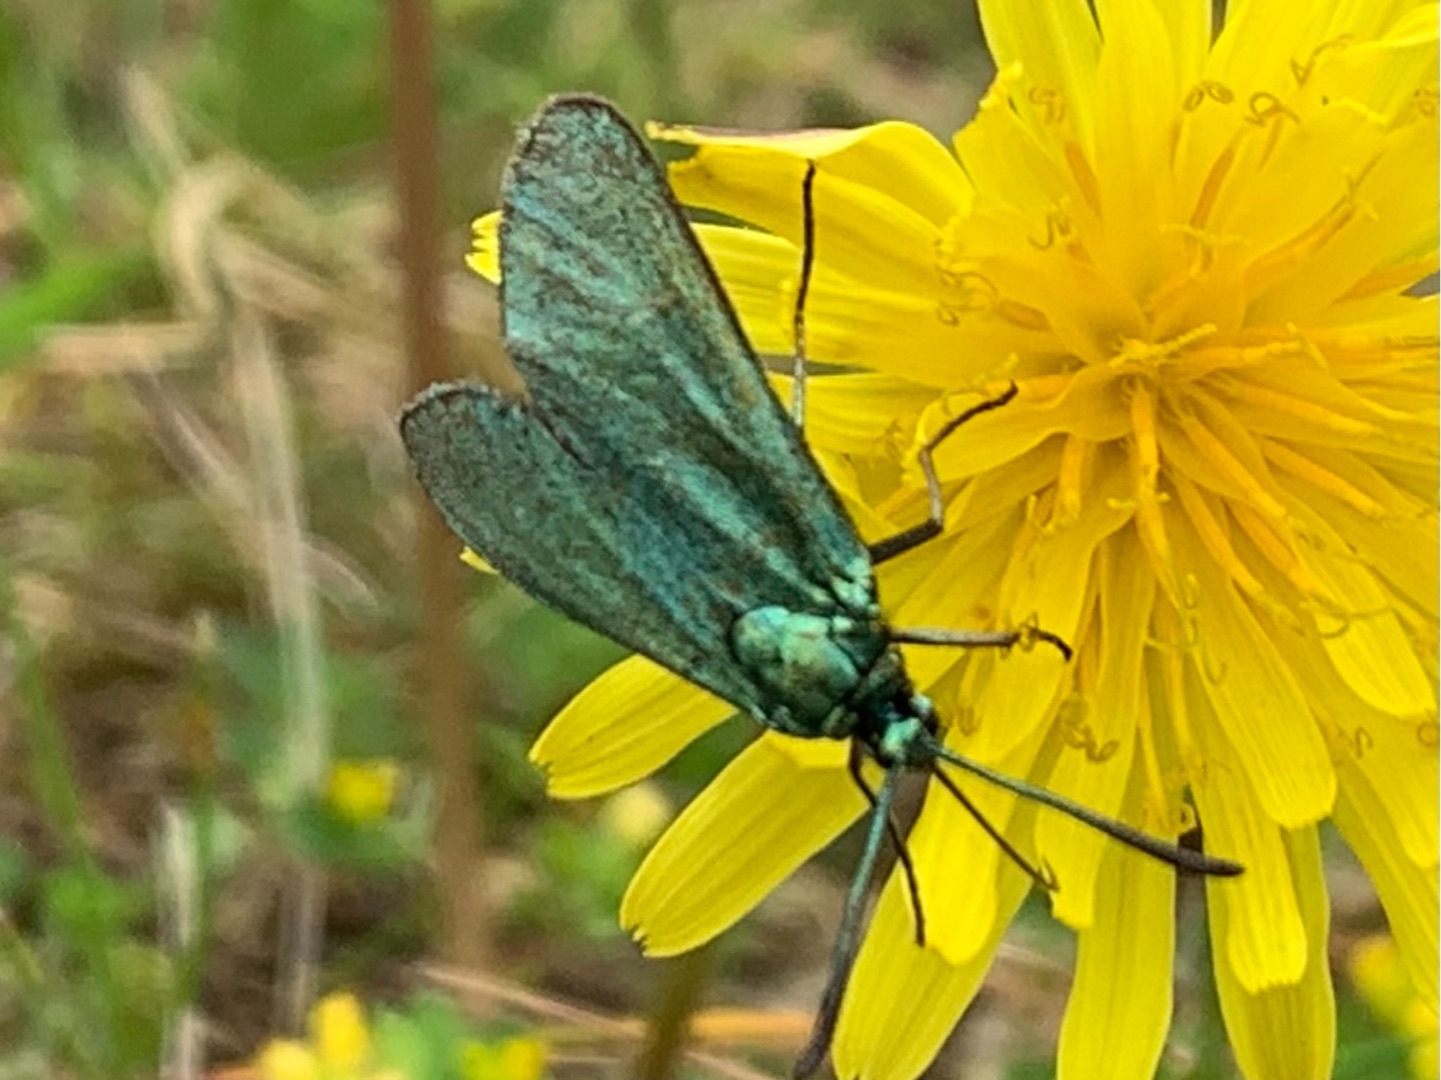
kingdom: Animalia
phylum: Arthropoda
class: Insecta
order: Lepidoptera
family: Zygaenidae
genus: Adscita
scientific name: Adscita statices
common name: Metalvinge
